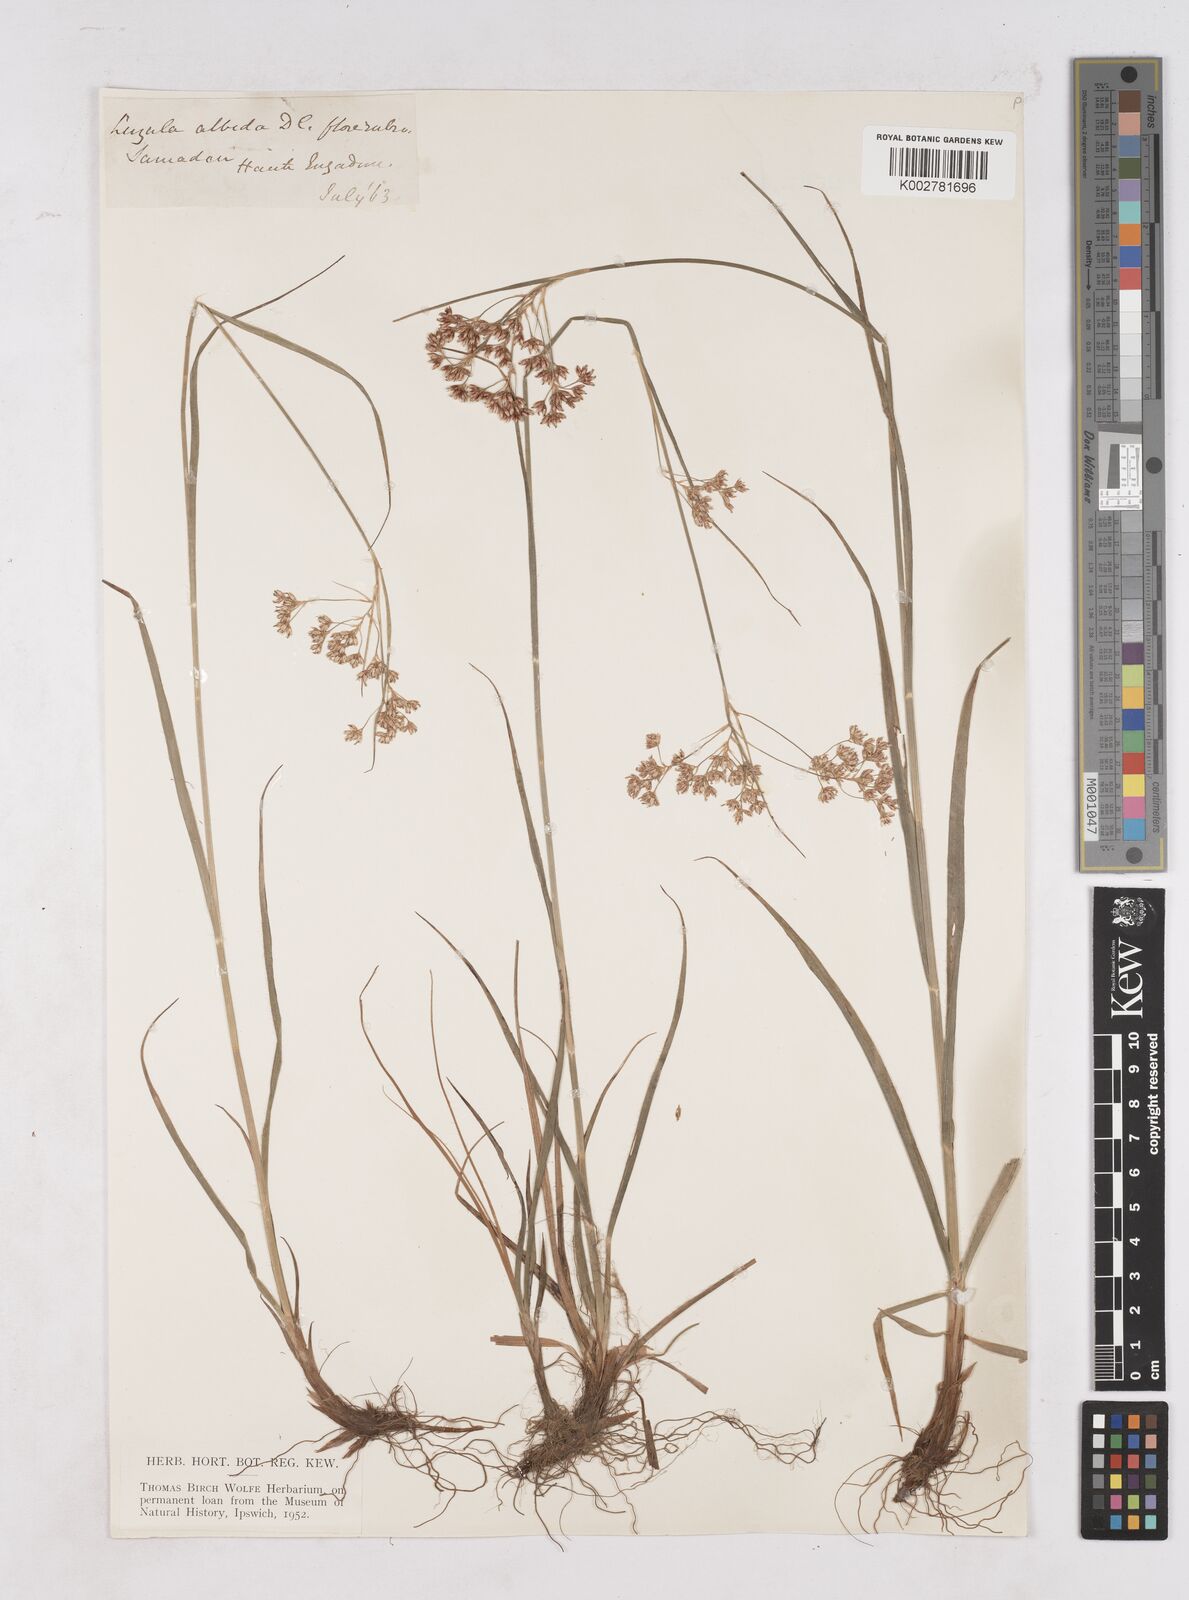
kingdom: Plantae
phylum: Tracheophyta
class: Liliopsida
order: Poales
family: Juncaceae
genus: Luzula
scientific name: Luzula luzuloides
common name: White wood-rush
